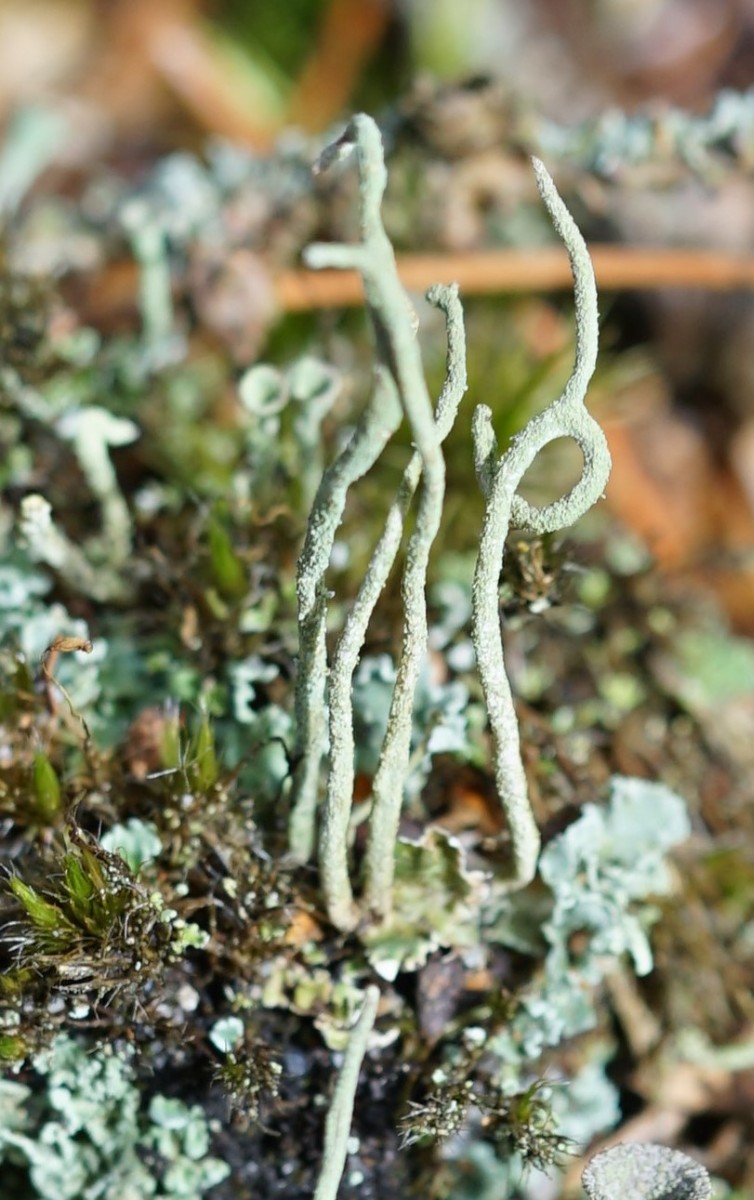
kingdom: Fungi
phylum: Ascomycota
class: Lecanoromycetes
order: Lecanorales
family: Cladoniaceae
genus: Cladonia
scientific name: Cladonia subulata
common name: spids bægerlav
